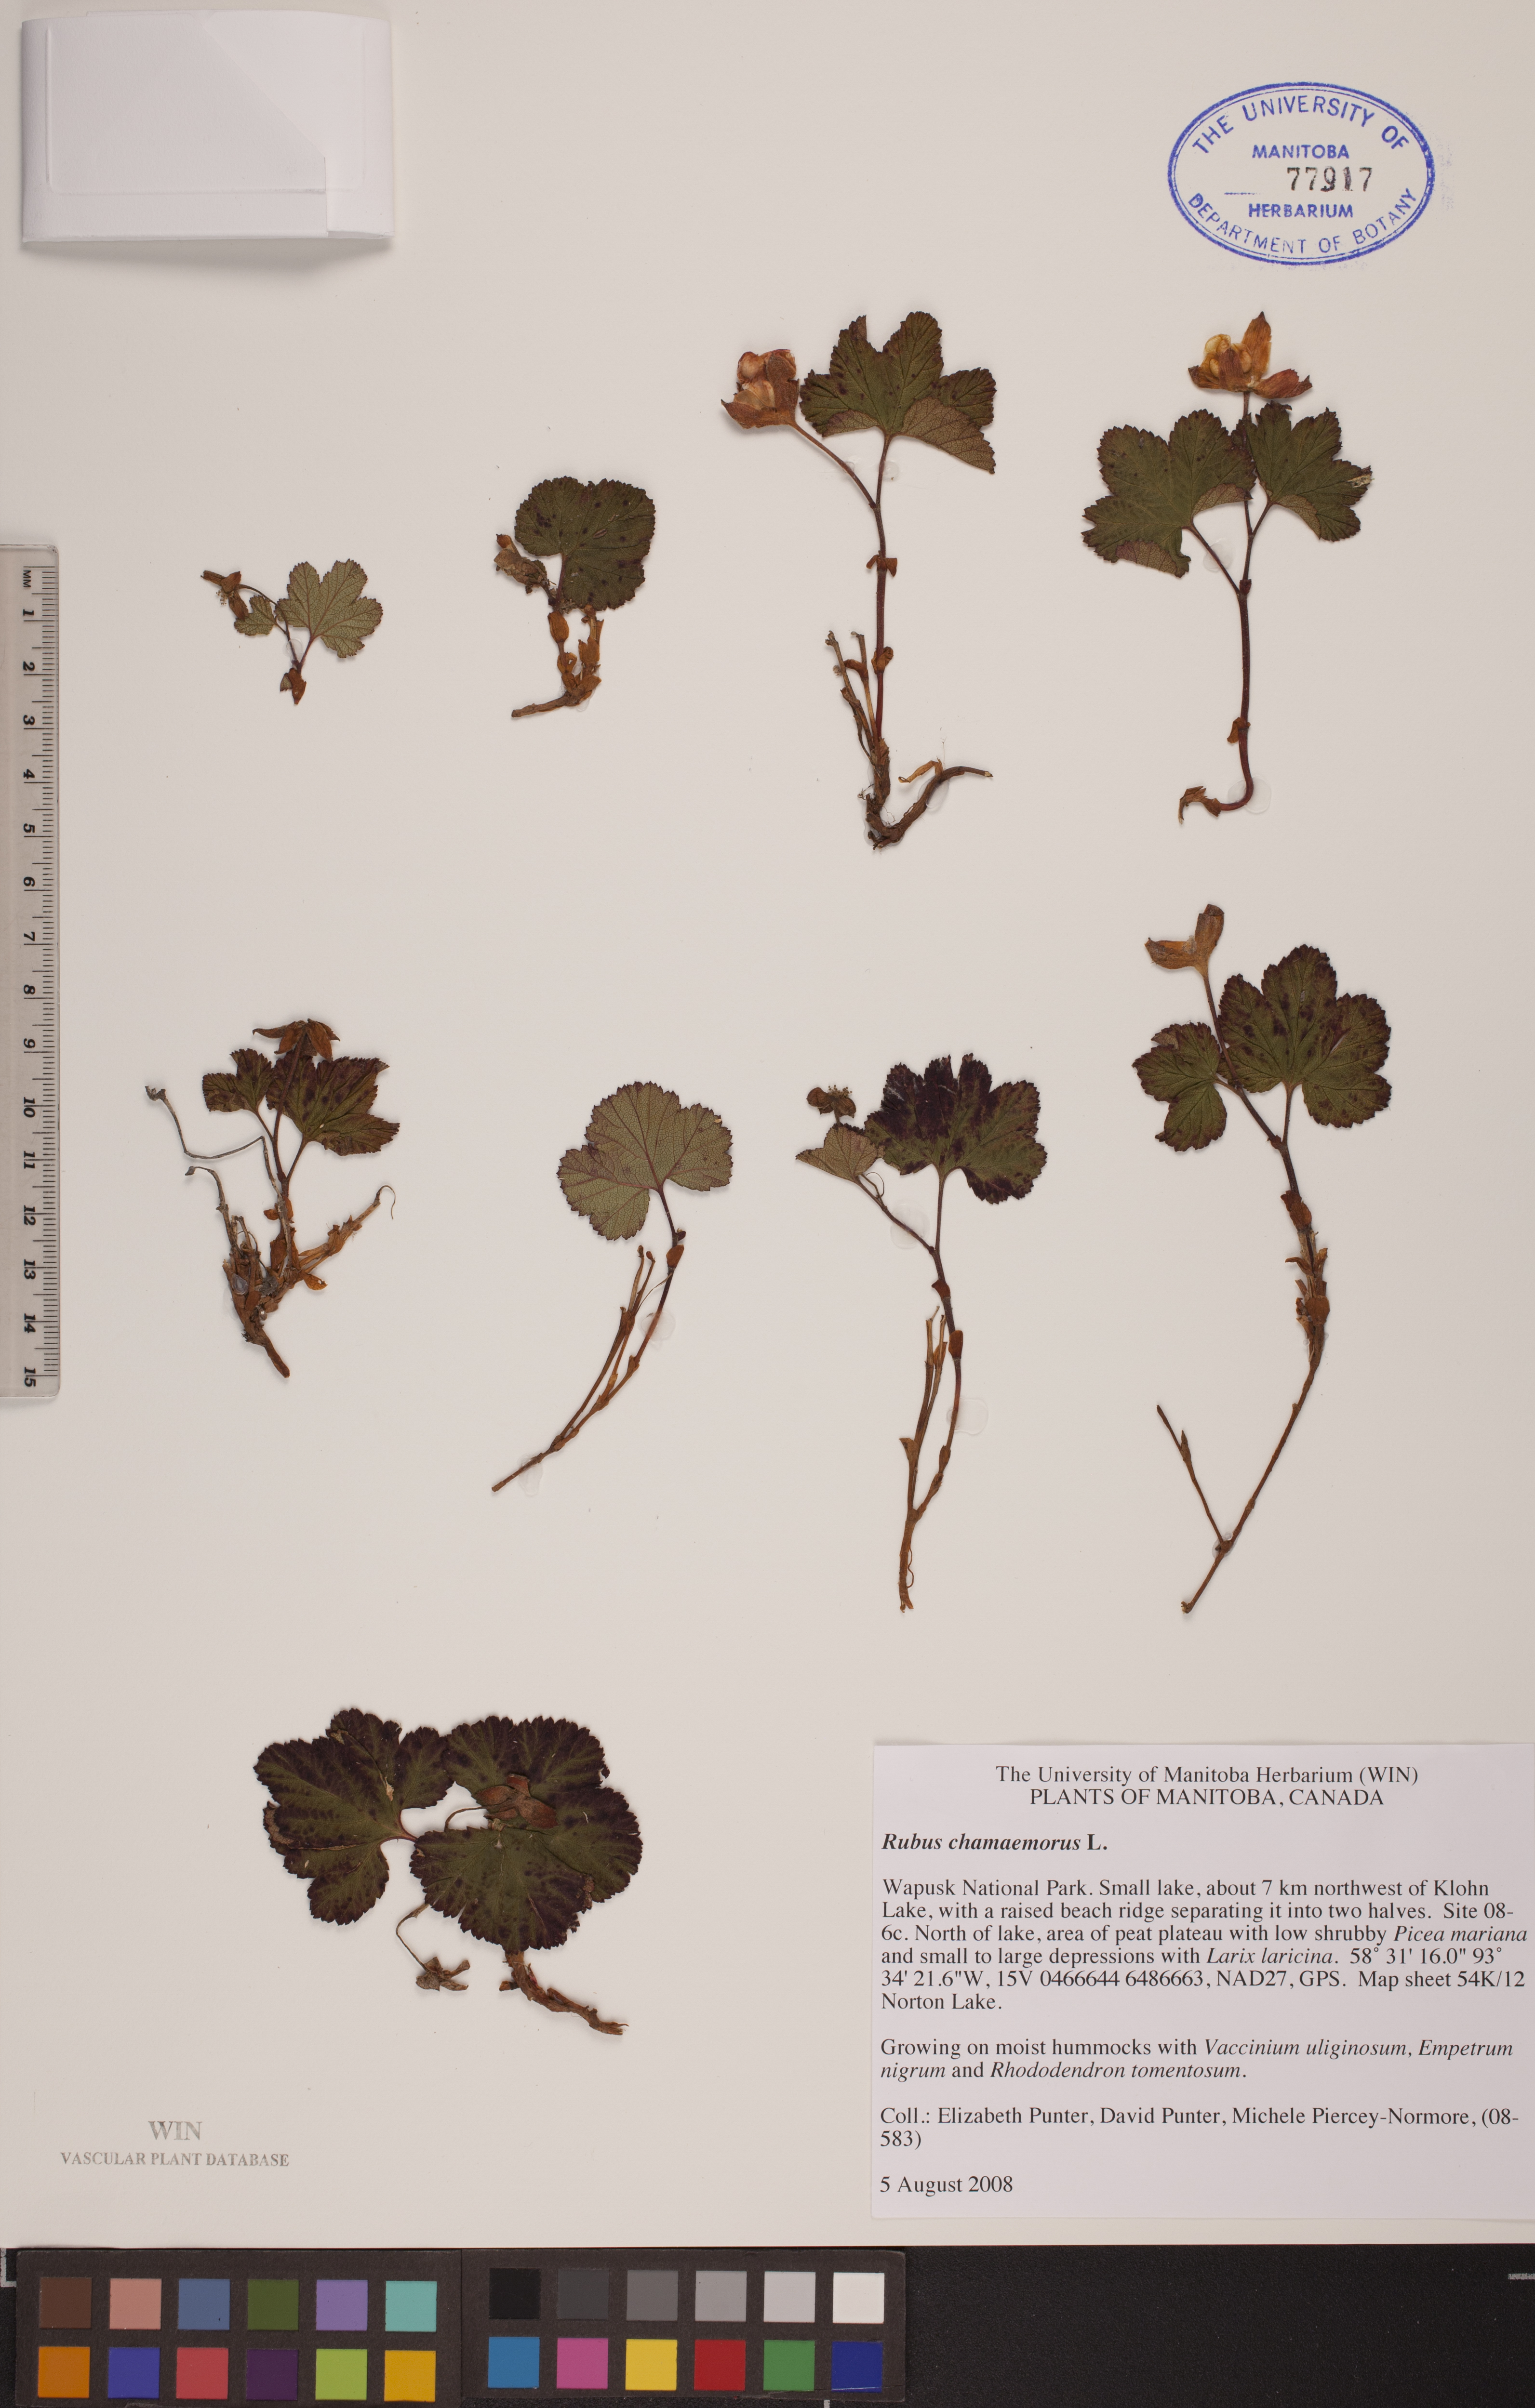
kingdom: Plantae
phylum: Tracheophyta
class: Magnoliopsida
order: Rosales
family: Rosaceae
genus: Rubus
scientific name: Rubus chamaemorus
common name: Cloudberry
